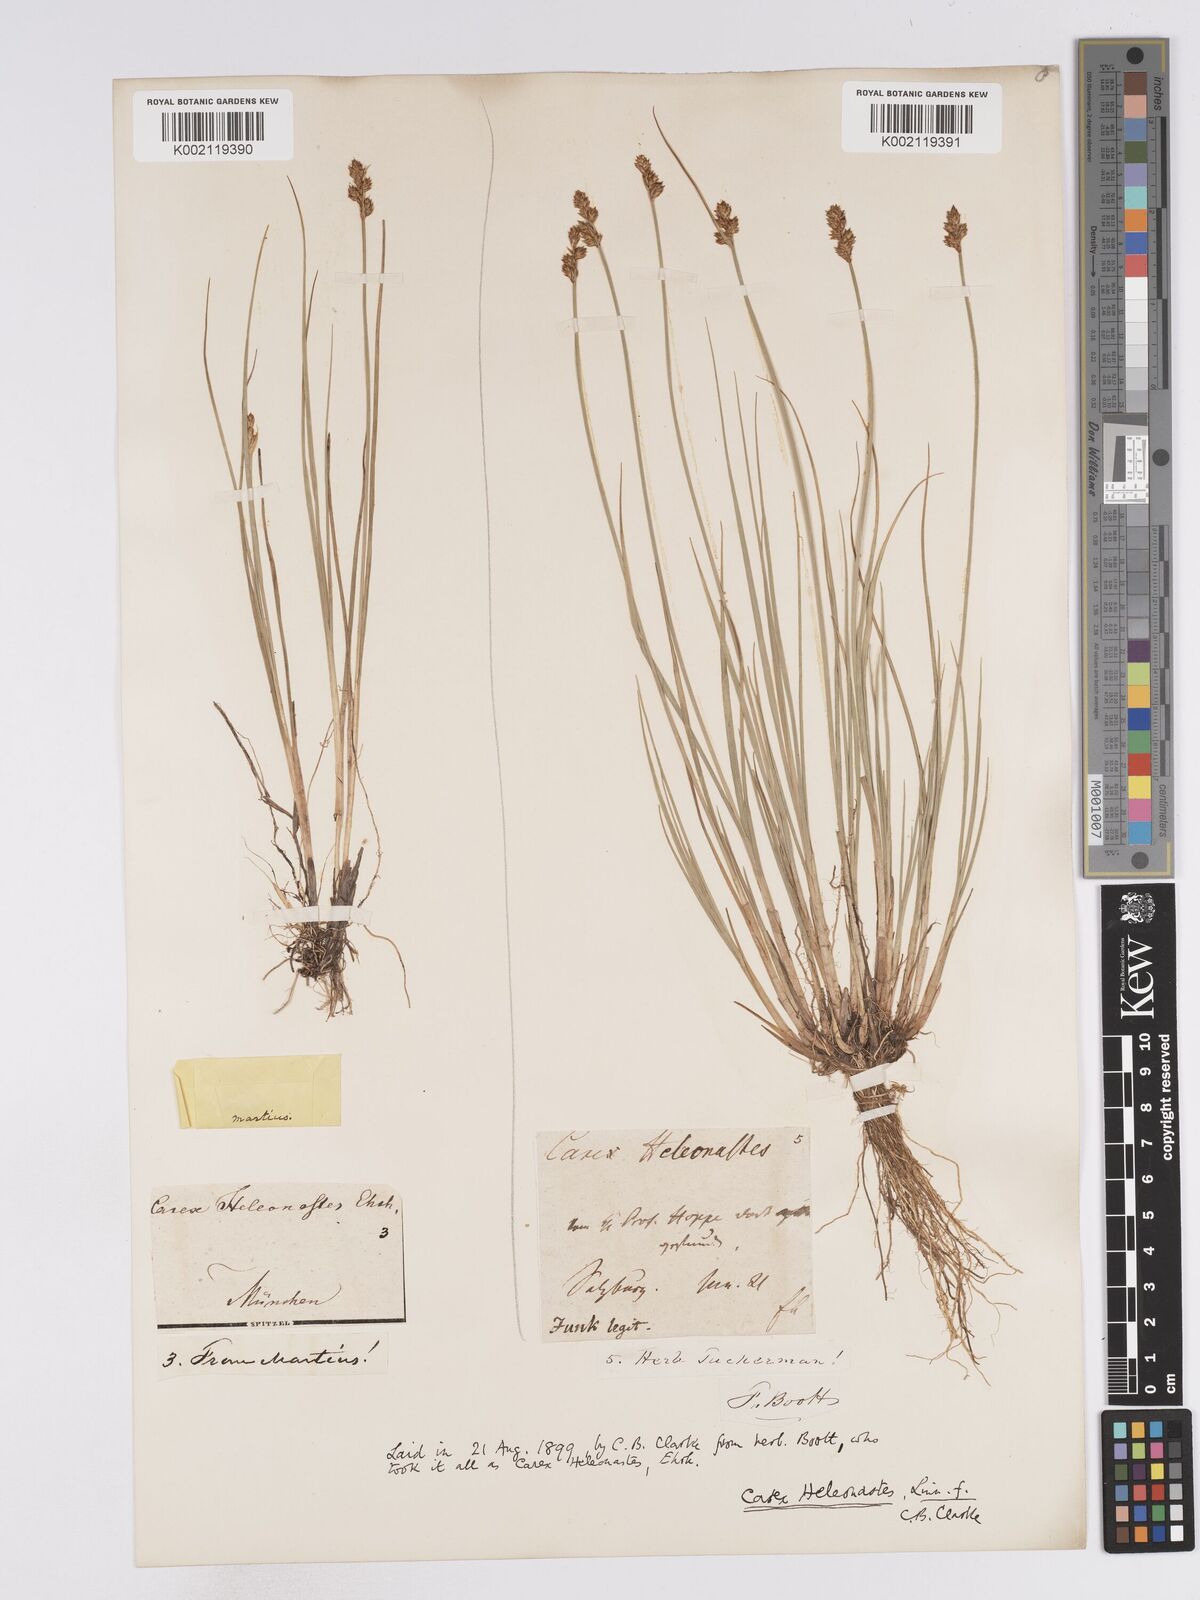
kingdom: Plantae
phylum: Tracheophyta
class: Liliopsida
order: Poales
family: Cyperaceae
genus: Carex
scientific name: Carex heleonastes
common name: Hudson bay sedge
